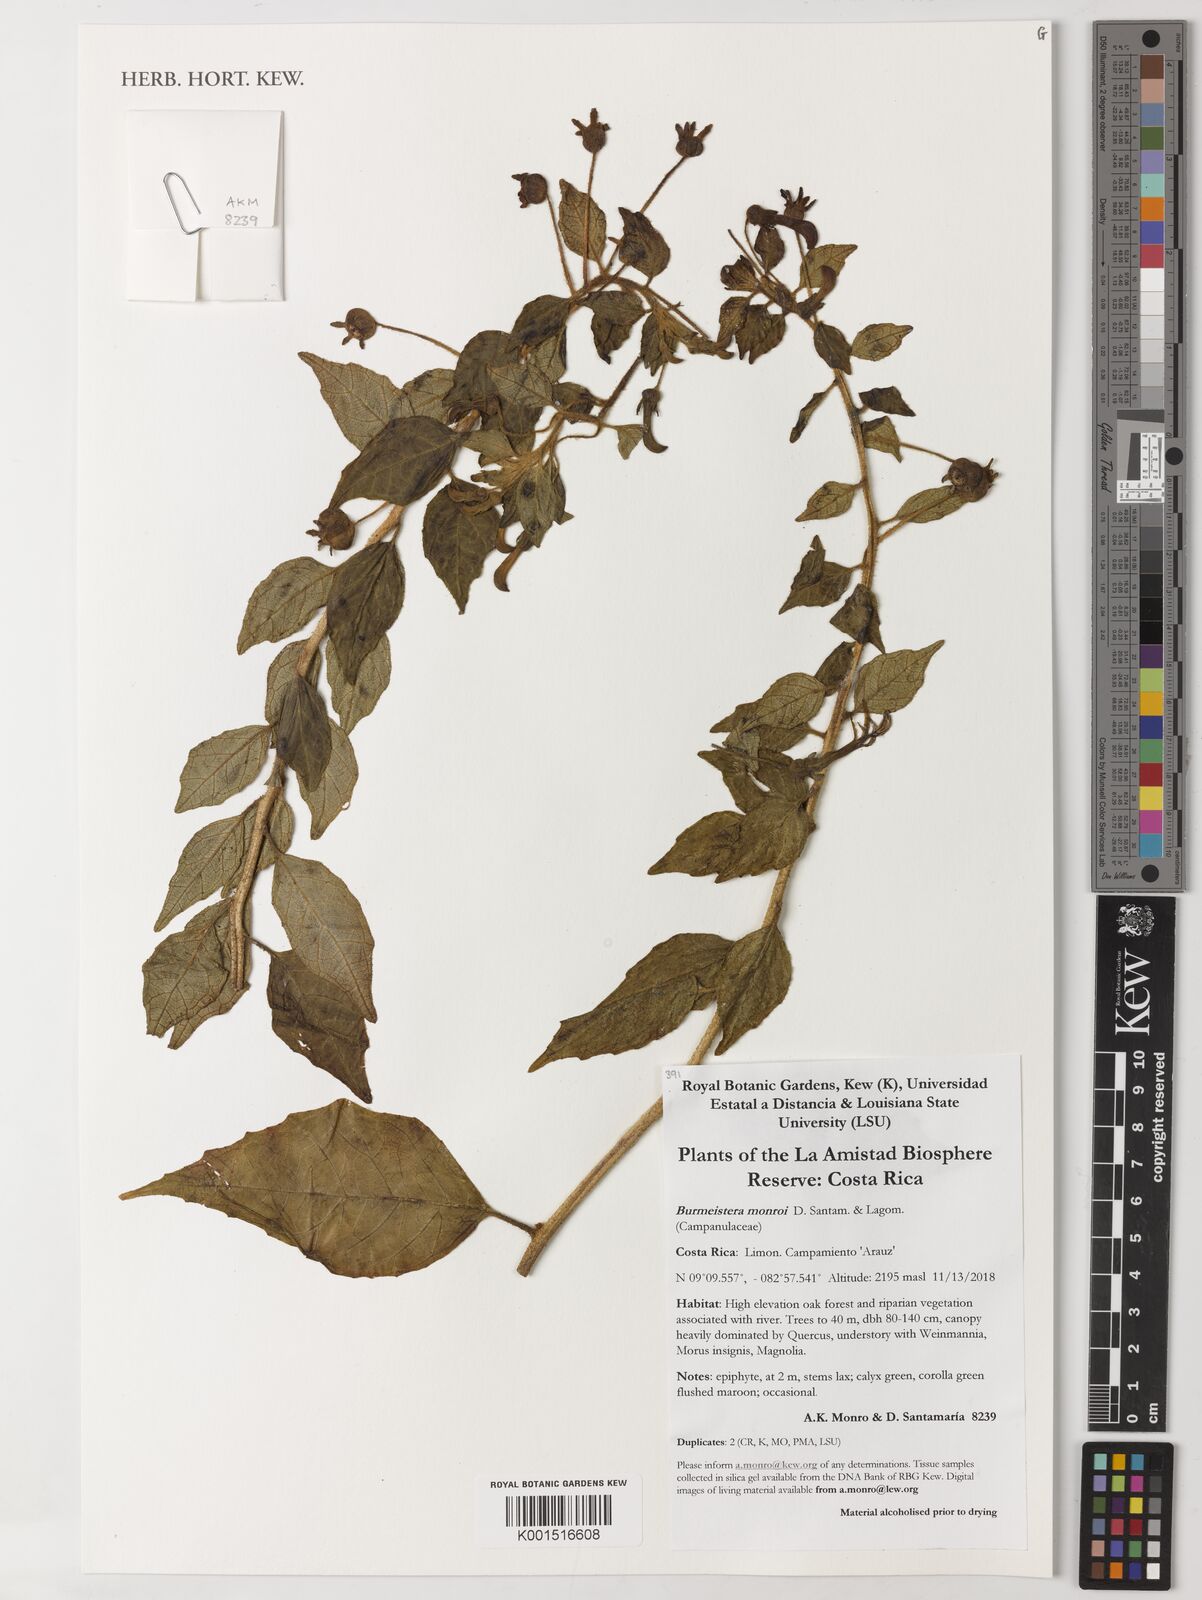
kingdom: Plantae
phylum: Tracheophyta
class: Magnoliopsida
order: Asterales
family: Campanulaceae
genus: Burmeistera
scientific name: Burmeistera monroi
